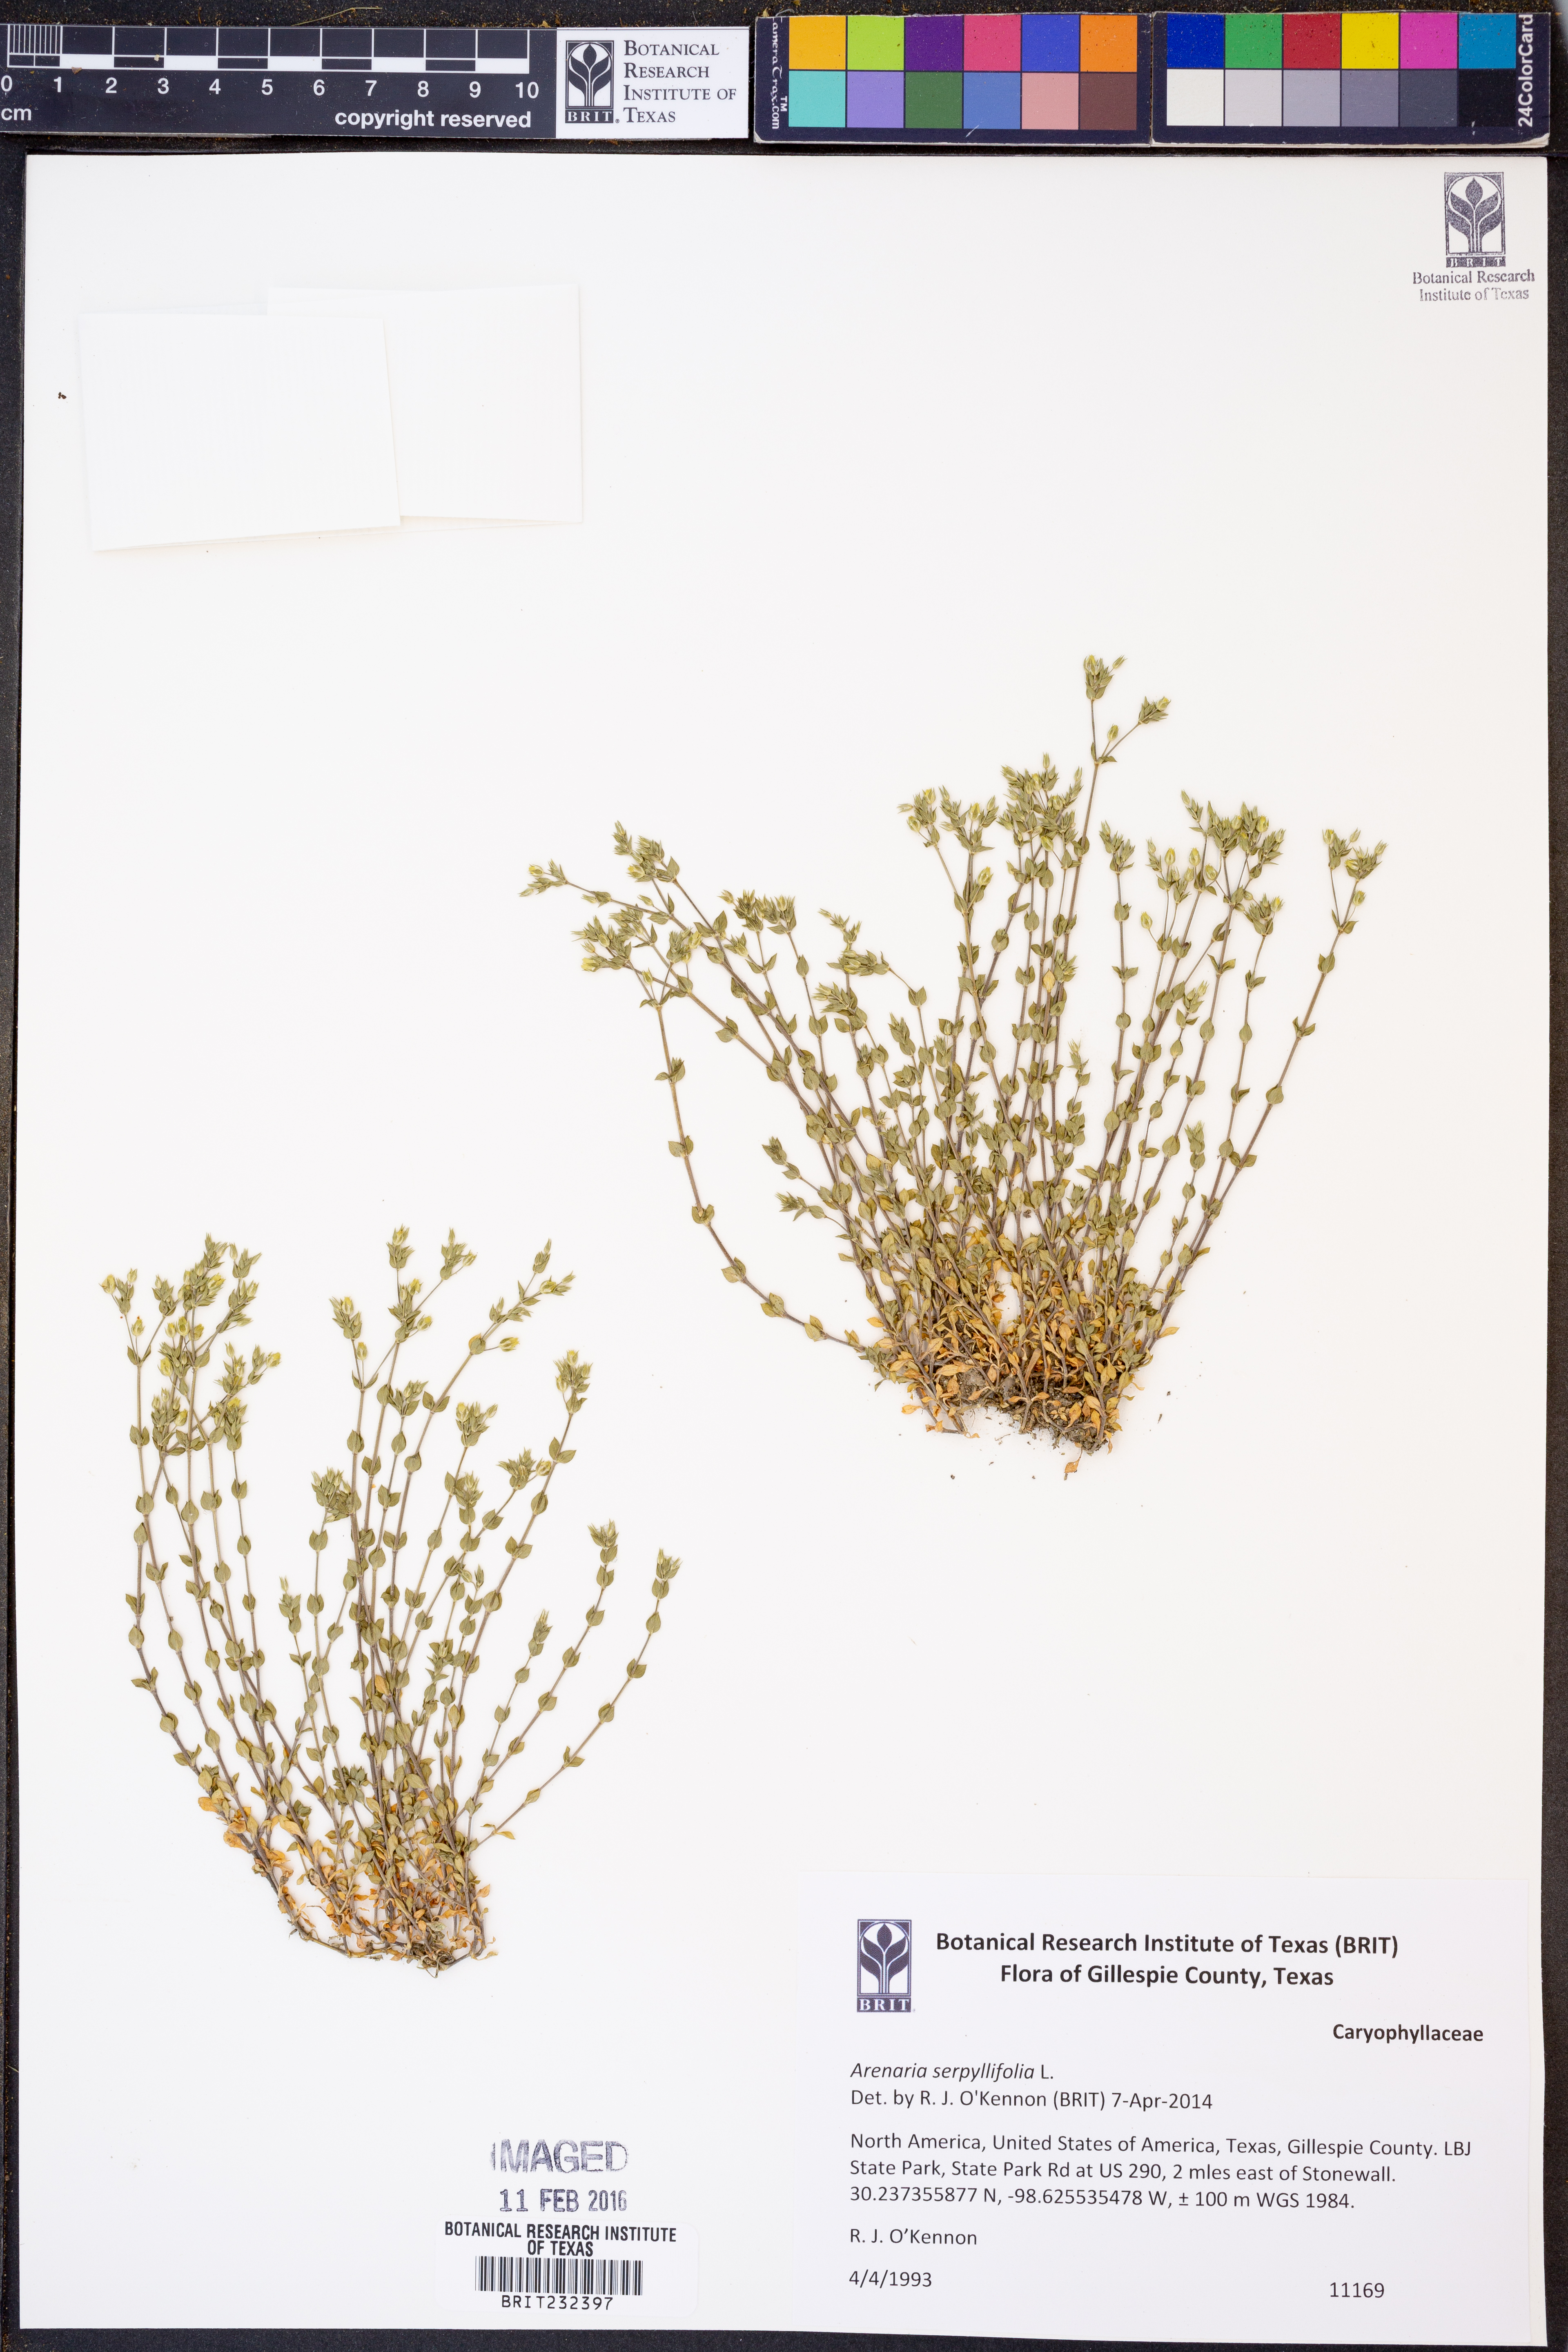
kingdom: Plantae
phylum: Tracheophyta
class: Magnoliopsida
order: Caryophyllales
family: Caryophyllaceae
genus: Arenaria
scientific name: Arenaria serpyllifolia
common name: Thyme-leaved sandwort
